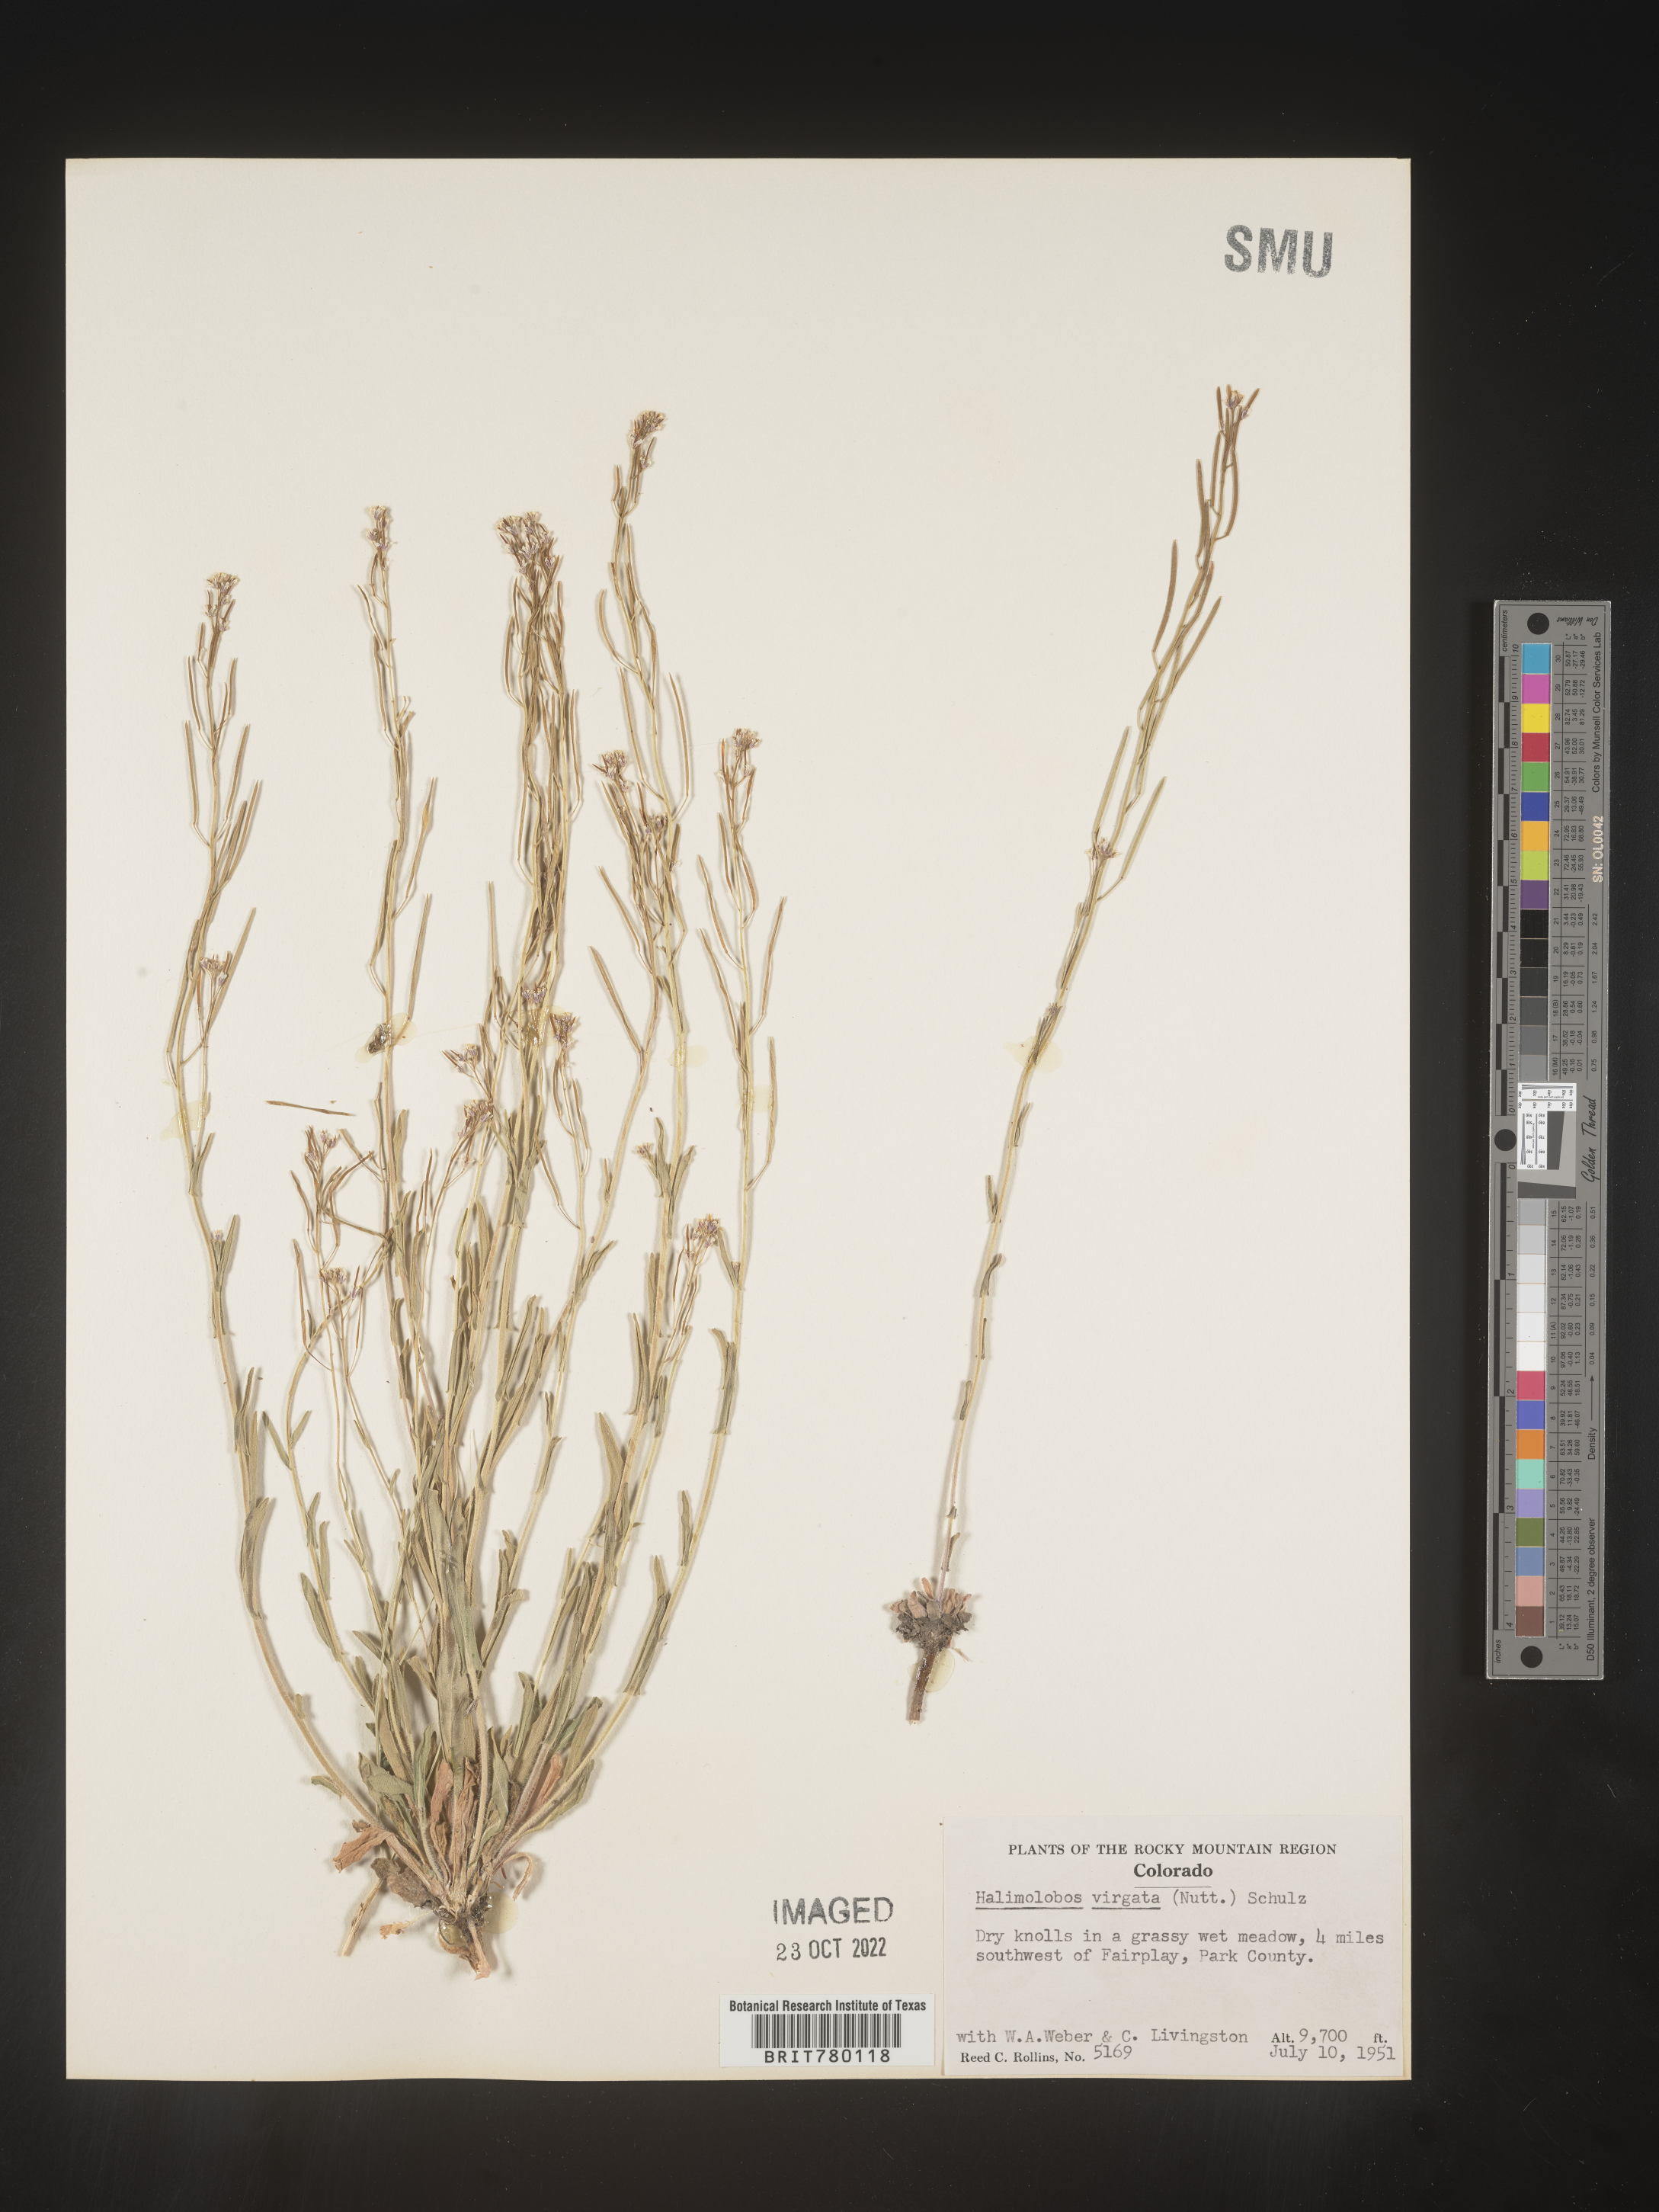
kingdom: Plantae
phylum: Tracheophyta
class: Magnoliopsida
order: Brassicales
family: Brassicaceae
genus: Halimolobos
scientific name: Halimolobos
